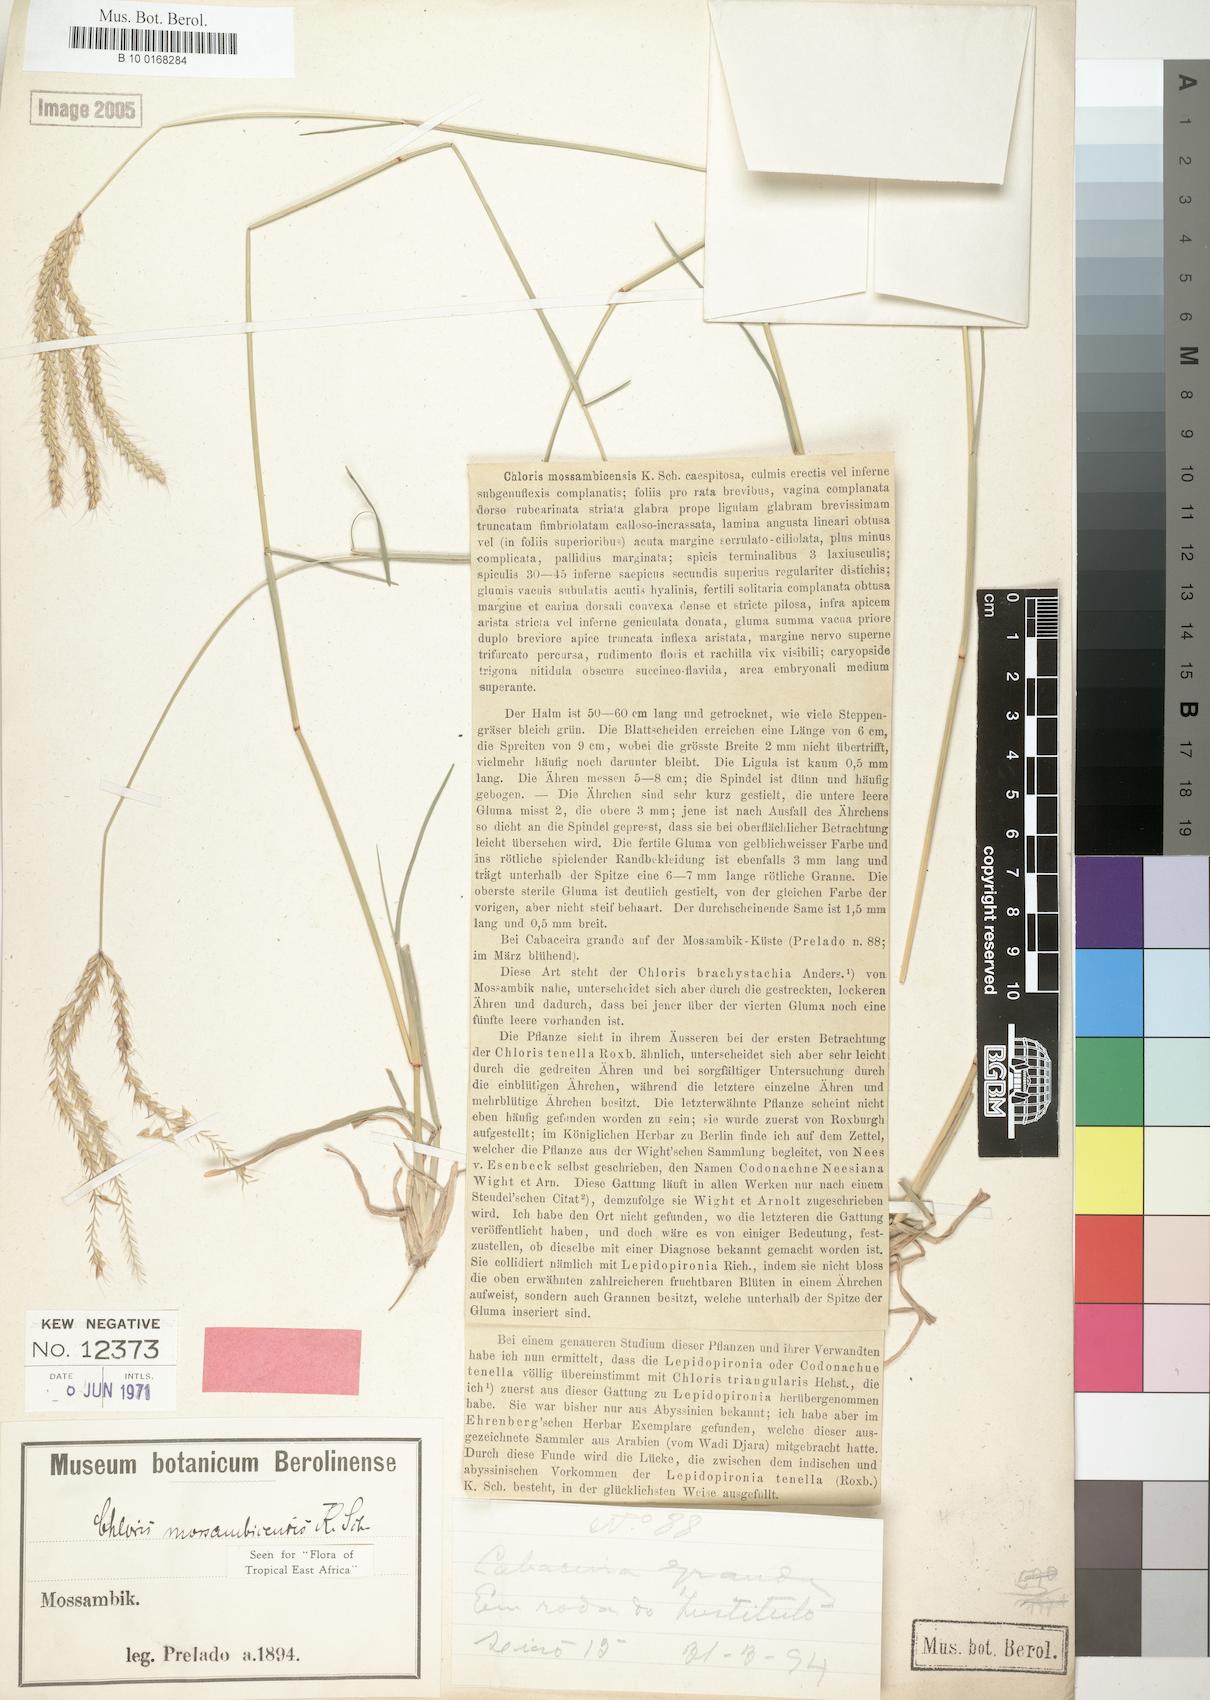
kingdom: Plantae
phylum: Tracheophyta
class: Liliopsida
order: Poales
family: Poaceae
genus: Chloris
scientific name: Chloris mossambicensis
